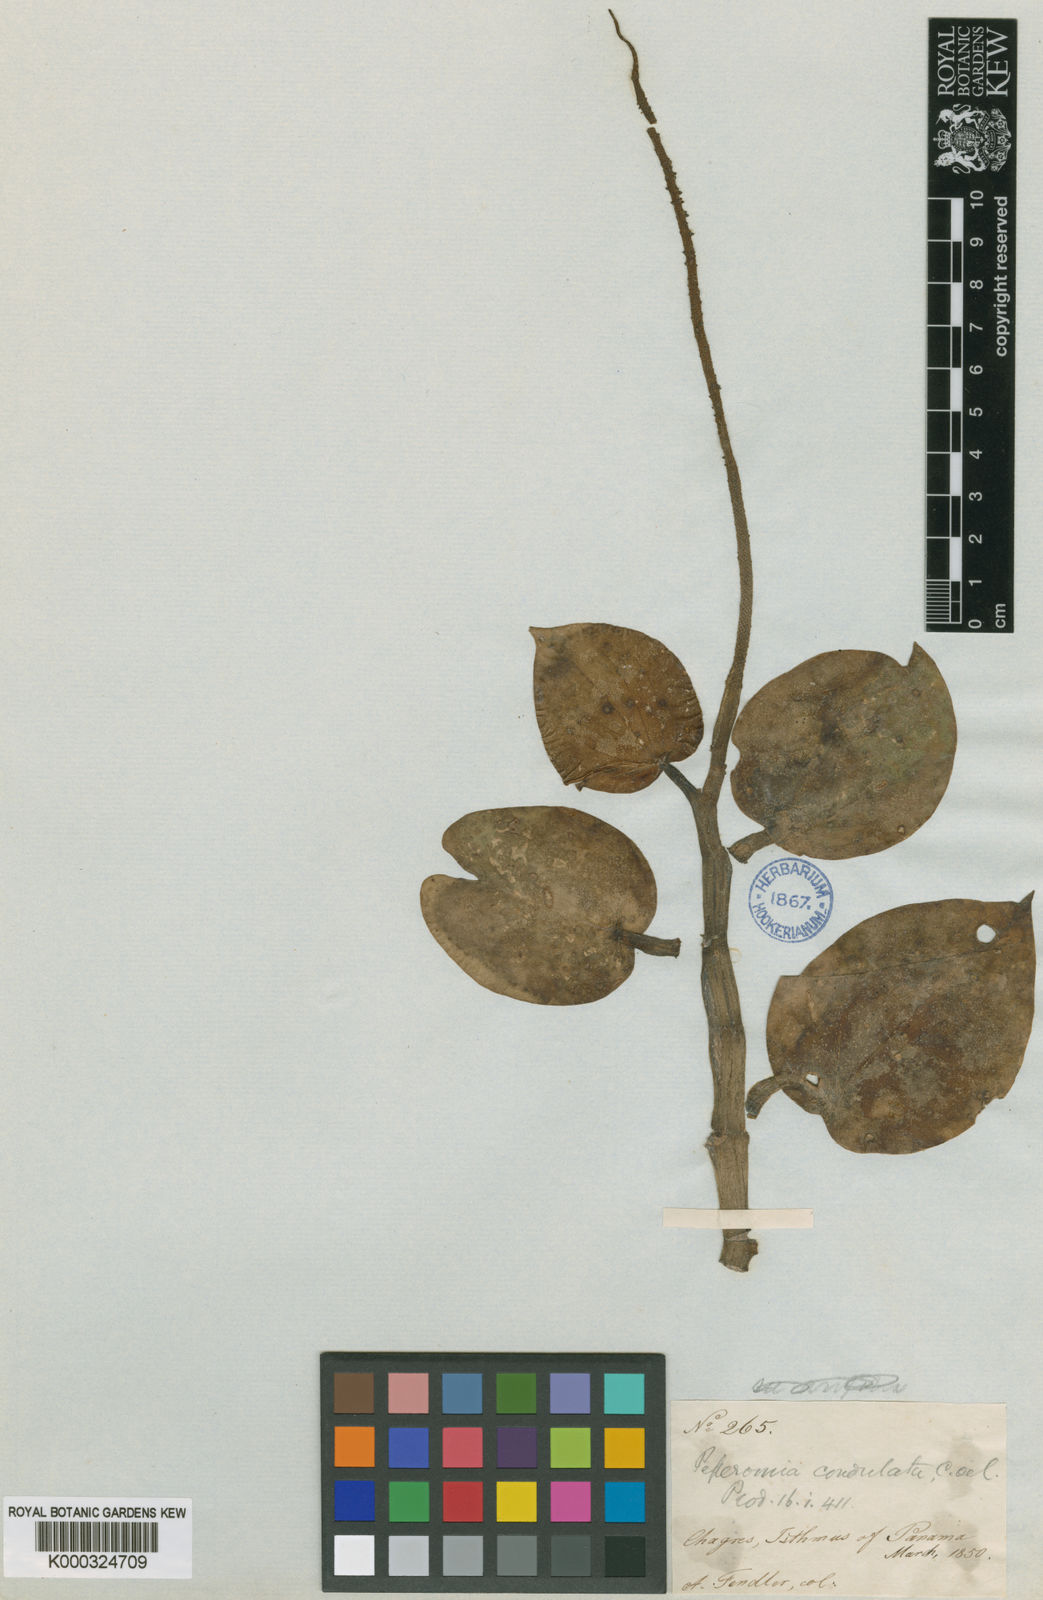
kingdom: Plantae
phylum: Tracheophyta
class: Magnoliopsida
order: Piperales
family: Piperaceae
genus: Peperomia
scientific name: Peperomia cordulata
